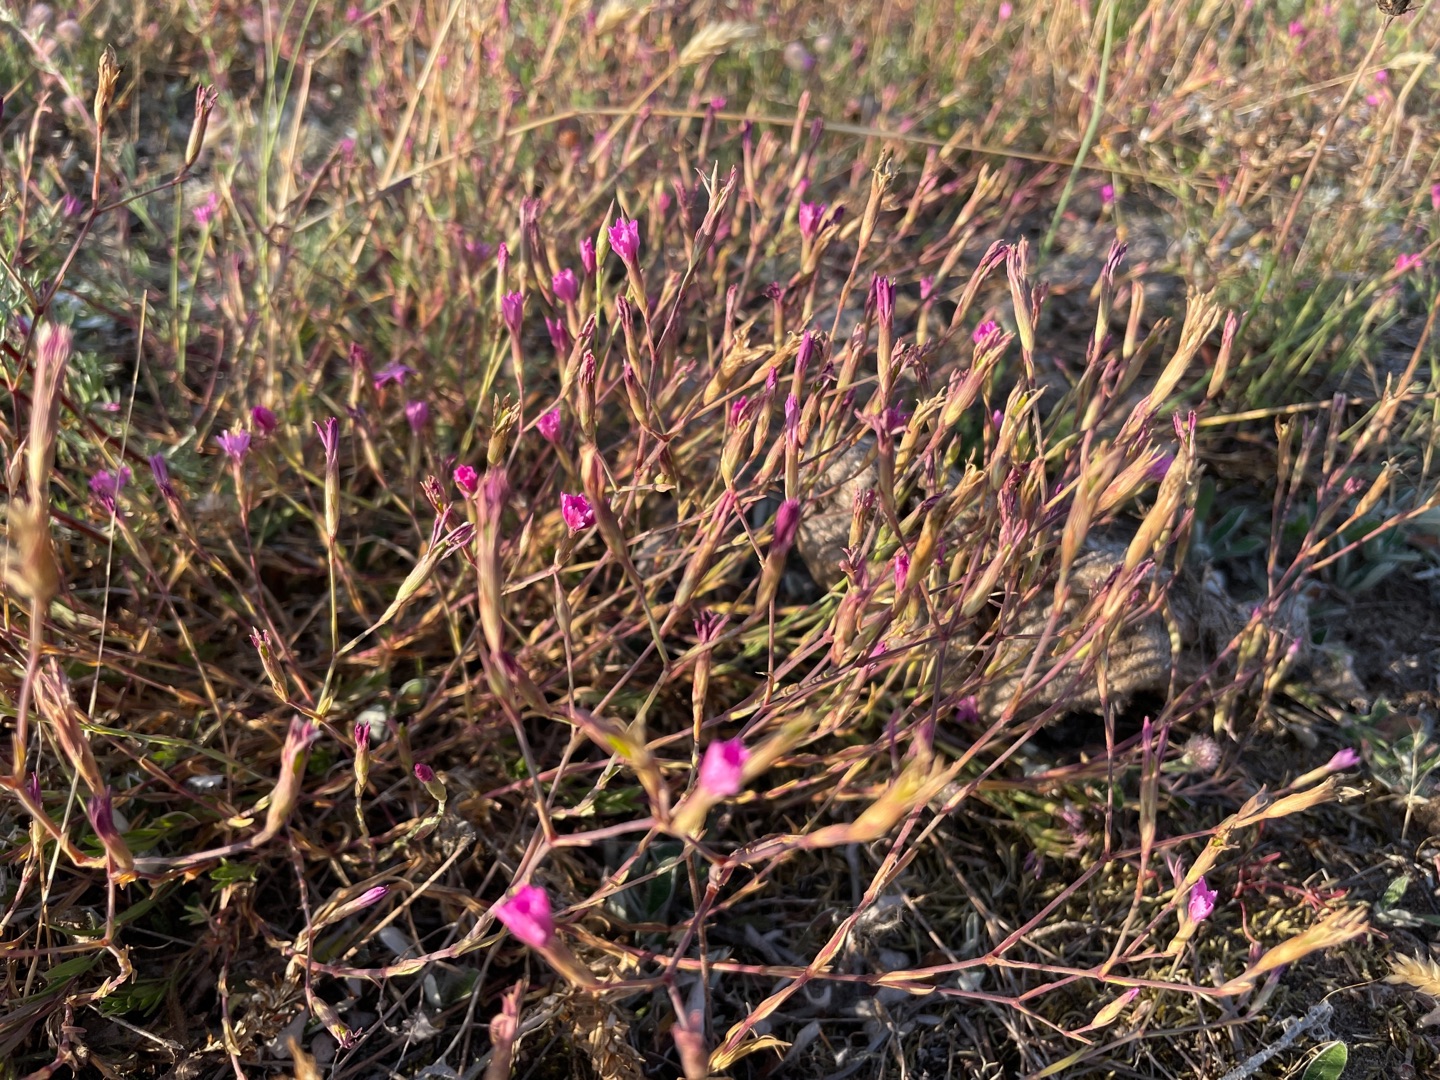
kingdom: Plantae
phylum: Tracheophyta
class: Magnoliopsida
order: Caryophyllales
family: Caryophyllaceae
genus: Dianthus
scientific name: Dianthus deltoides
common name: Bakke-nellike
